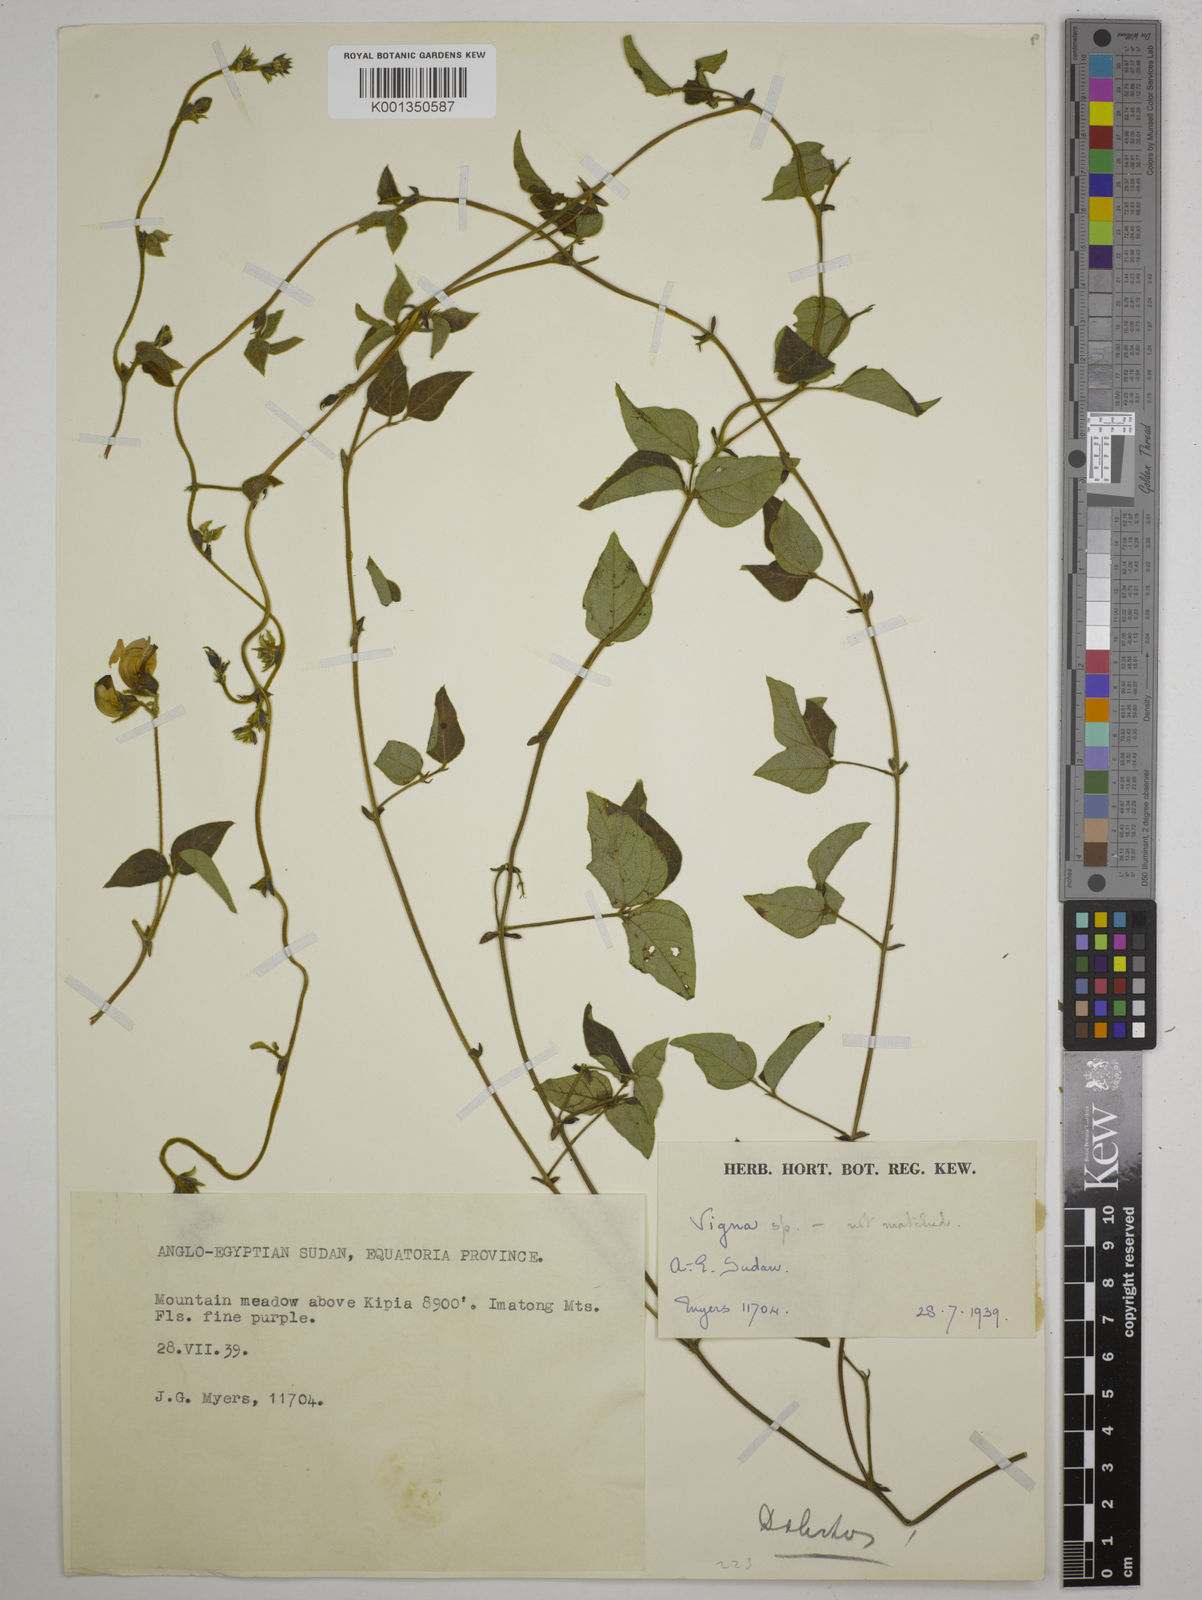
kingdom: Plantae
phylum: Tracheophyta
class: Magnoliopsida
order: Fabales
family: Fabaceae
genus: Dolichos
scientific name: Dolichos sericeus
